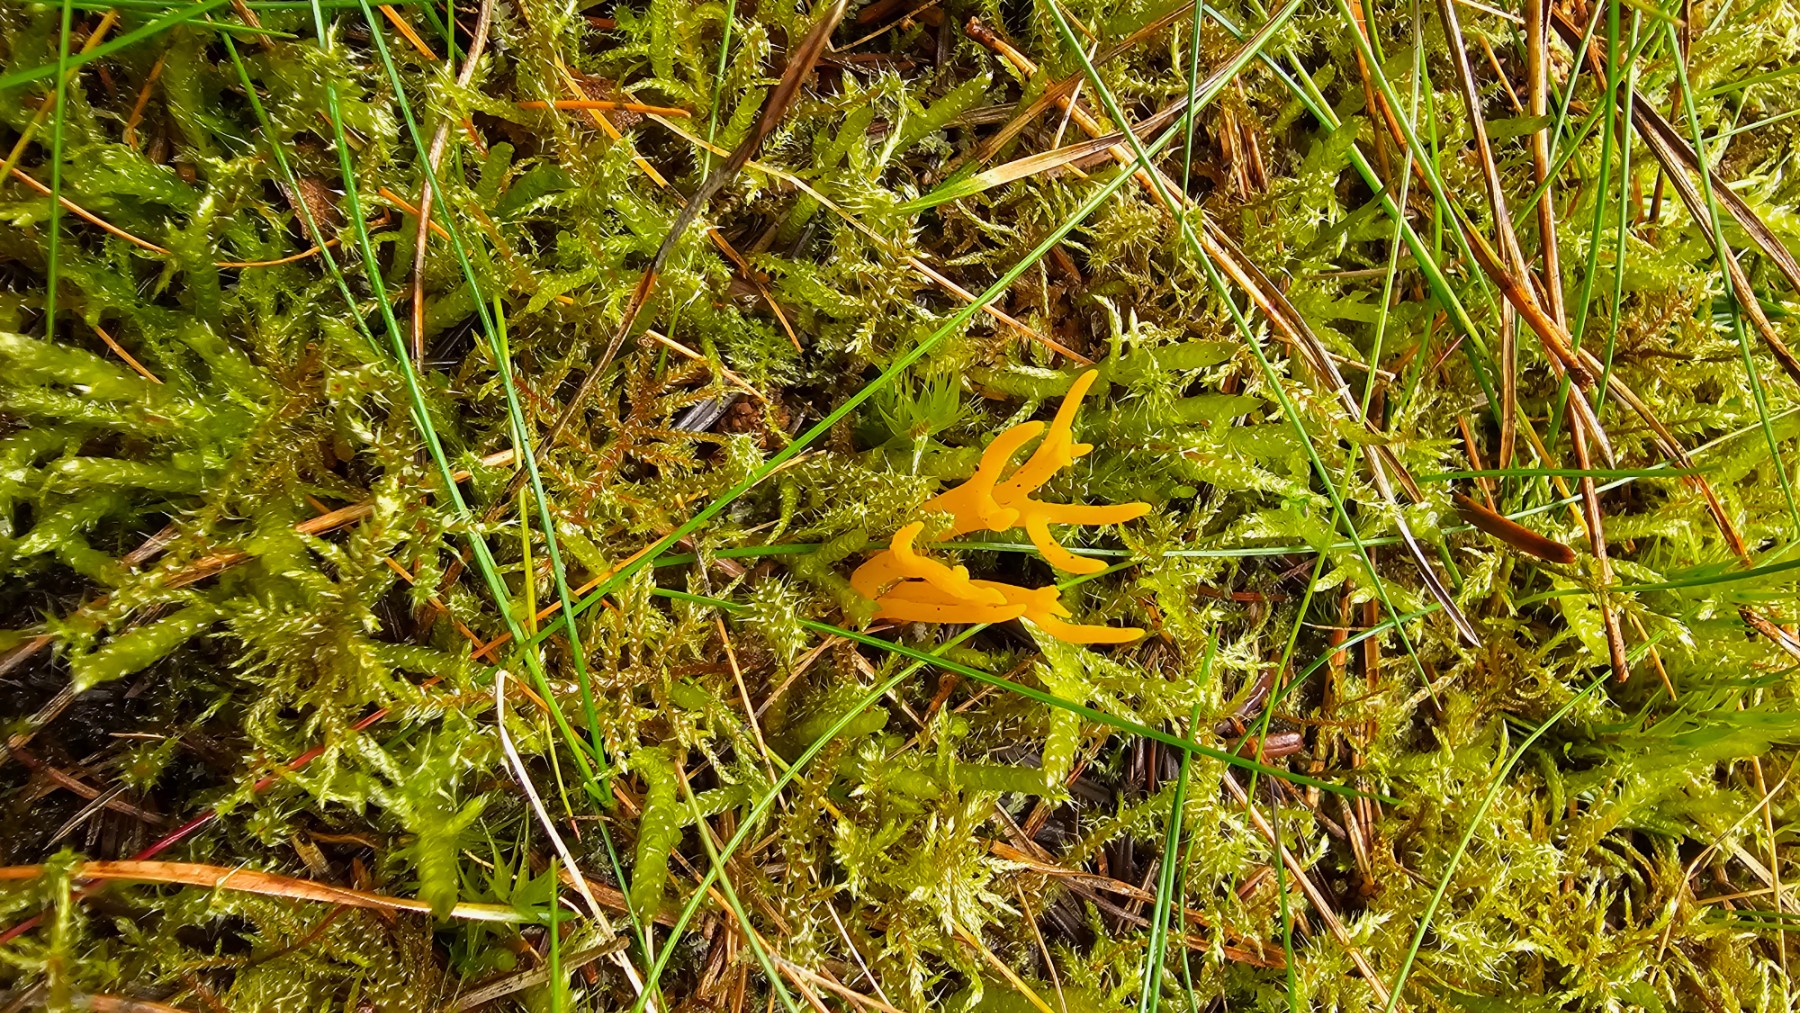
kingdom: Fungi
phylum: Basidiomycota
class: Dacrymycetes
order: Dacrymycetales
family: Dacrymycetaceae
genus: Calocera
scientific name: Calocera viscosa
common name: almindelig guldgaffel
